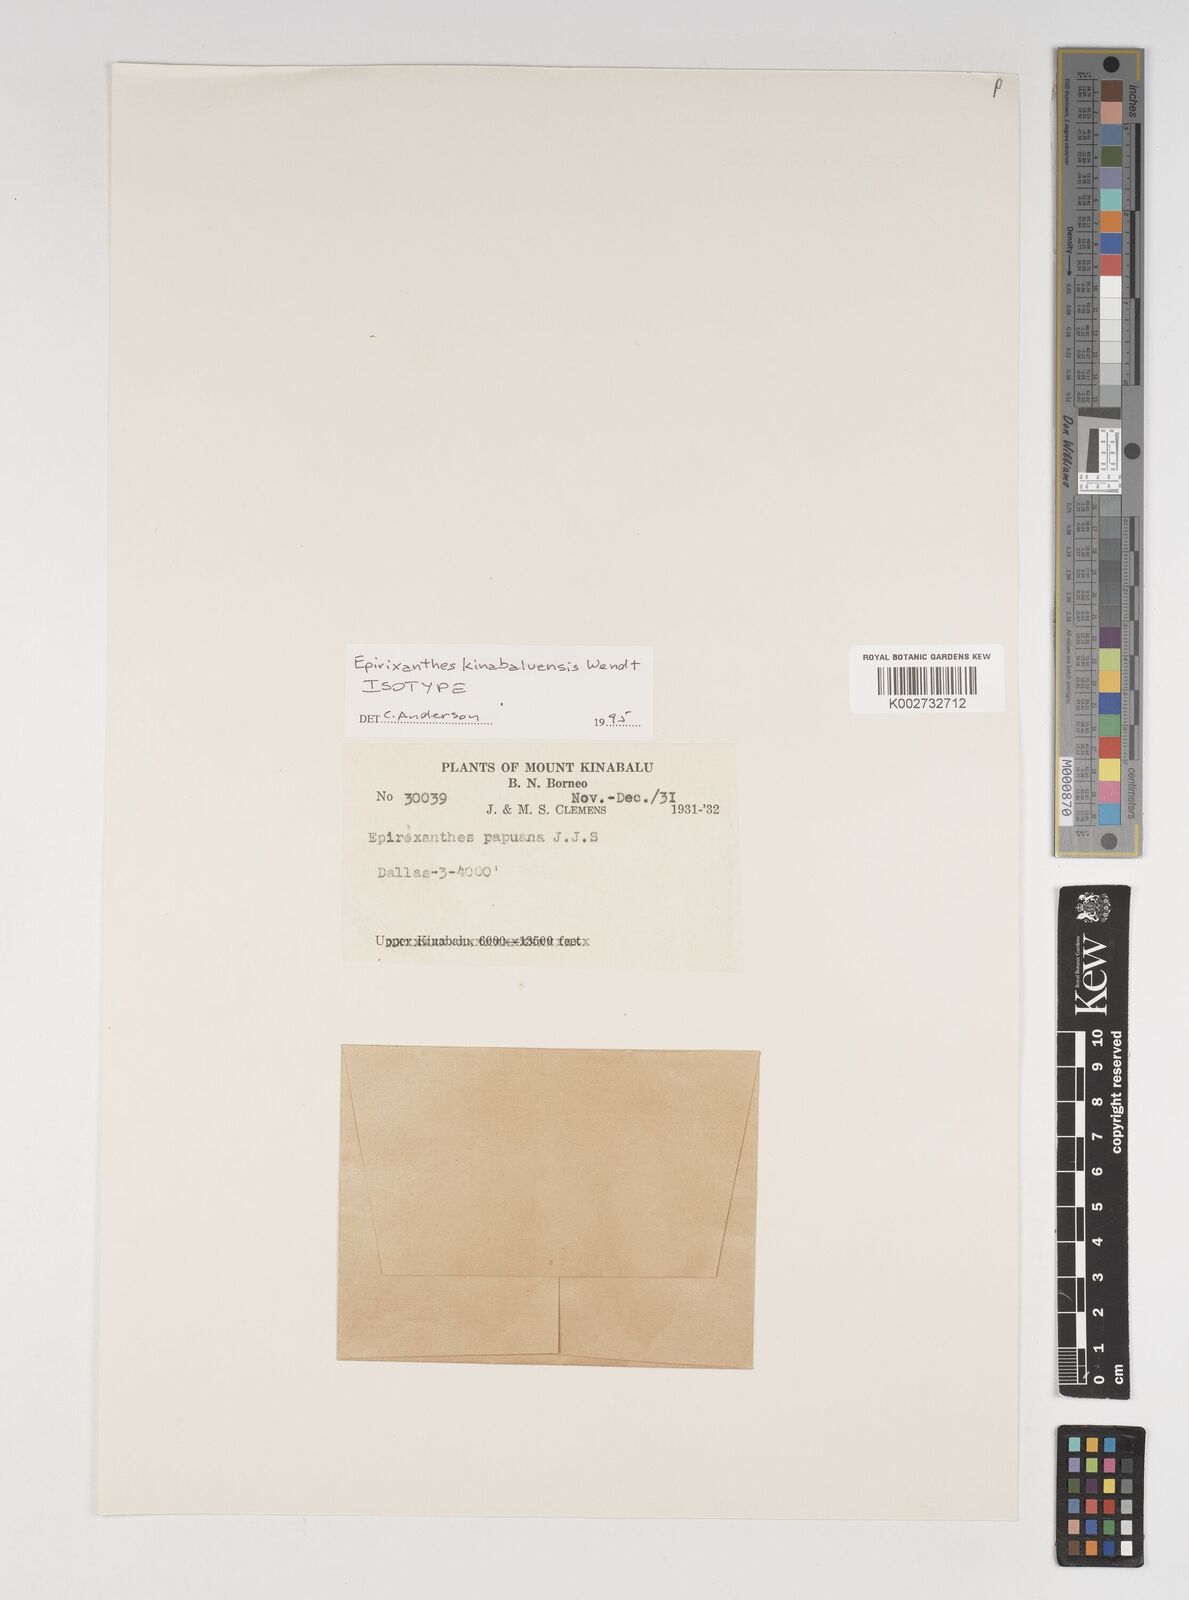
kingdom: Plantae
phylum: Tracheophyta
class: Magnoliopsida
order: Fabales
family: Polygalaceae
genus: Epirixanthes
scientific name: Epirixanthes kinabaluensis
